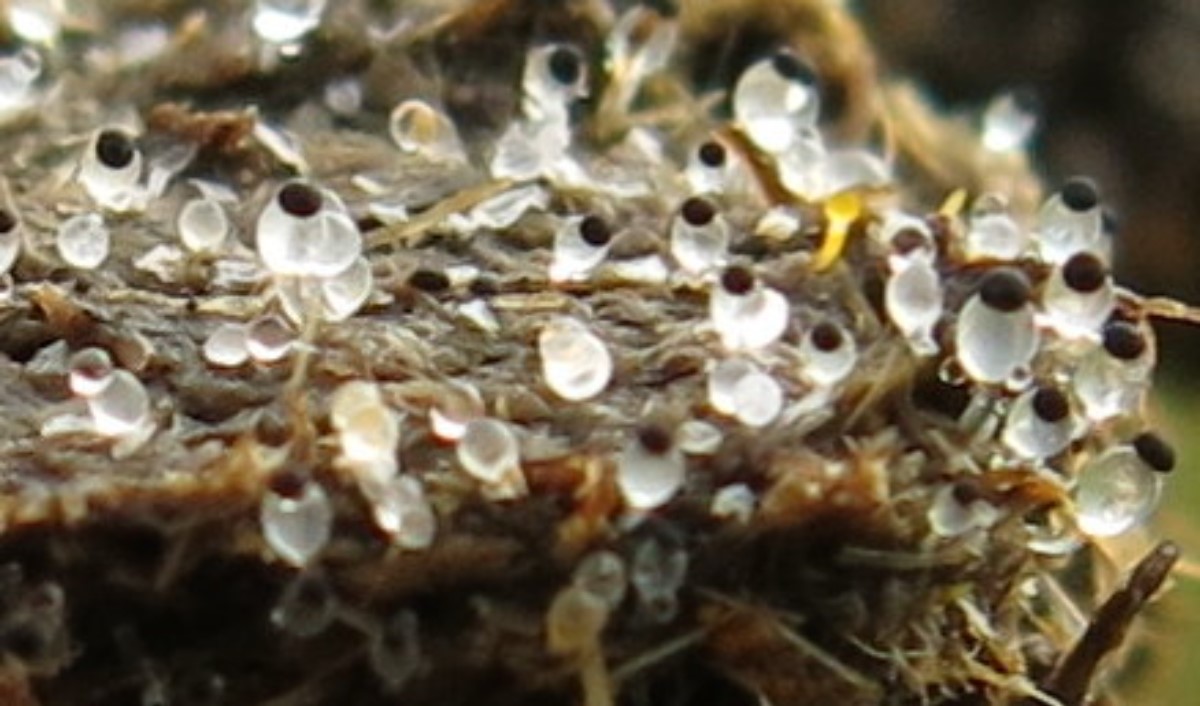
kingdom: Fungi
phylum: Mucoromycota
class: Mucoromycetes
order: Mucorales
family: Pilobolaceae
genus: Pilobolus
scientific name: Pilobolus
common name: boldkaster
